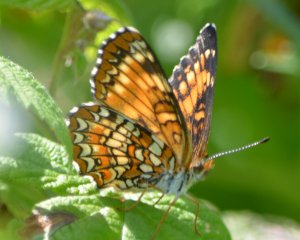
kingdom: Animalia
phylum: Arthropoda
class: Insecta
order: Lepidoptera
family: Nymphalidae
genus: Chlosyne
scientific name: Chlosyne harrisii
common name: Harris's Checkerspot
